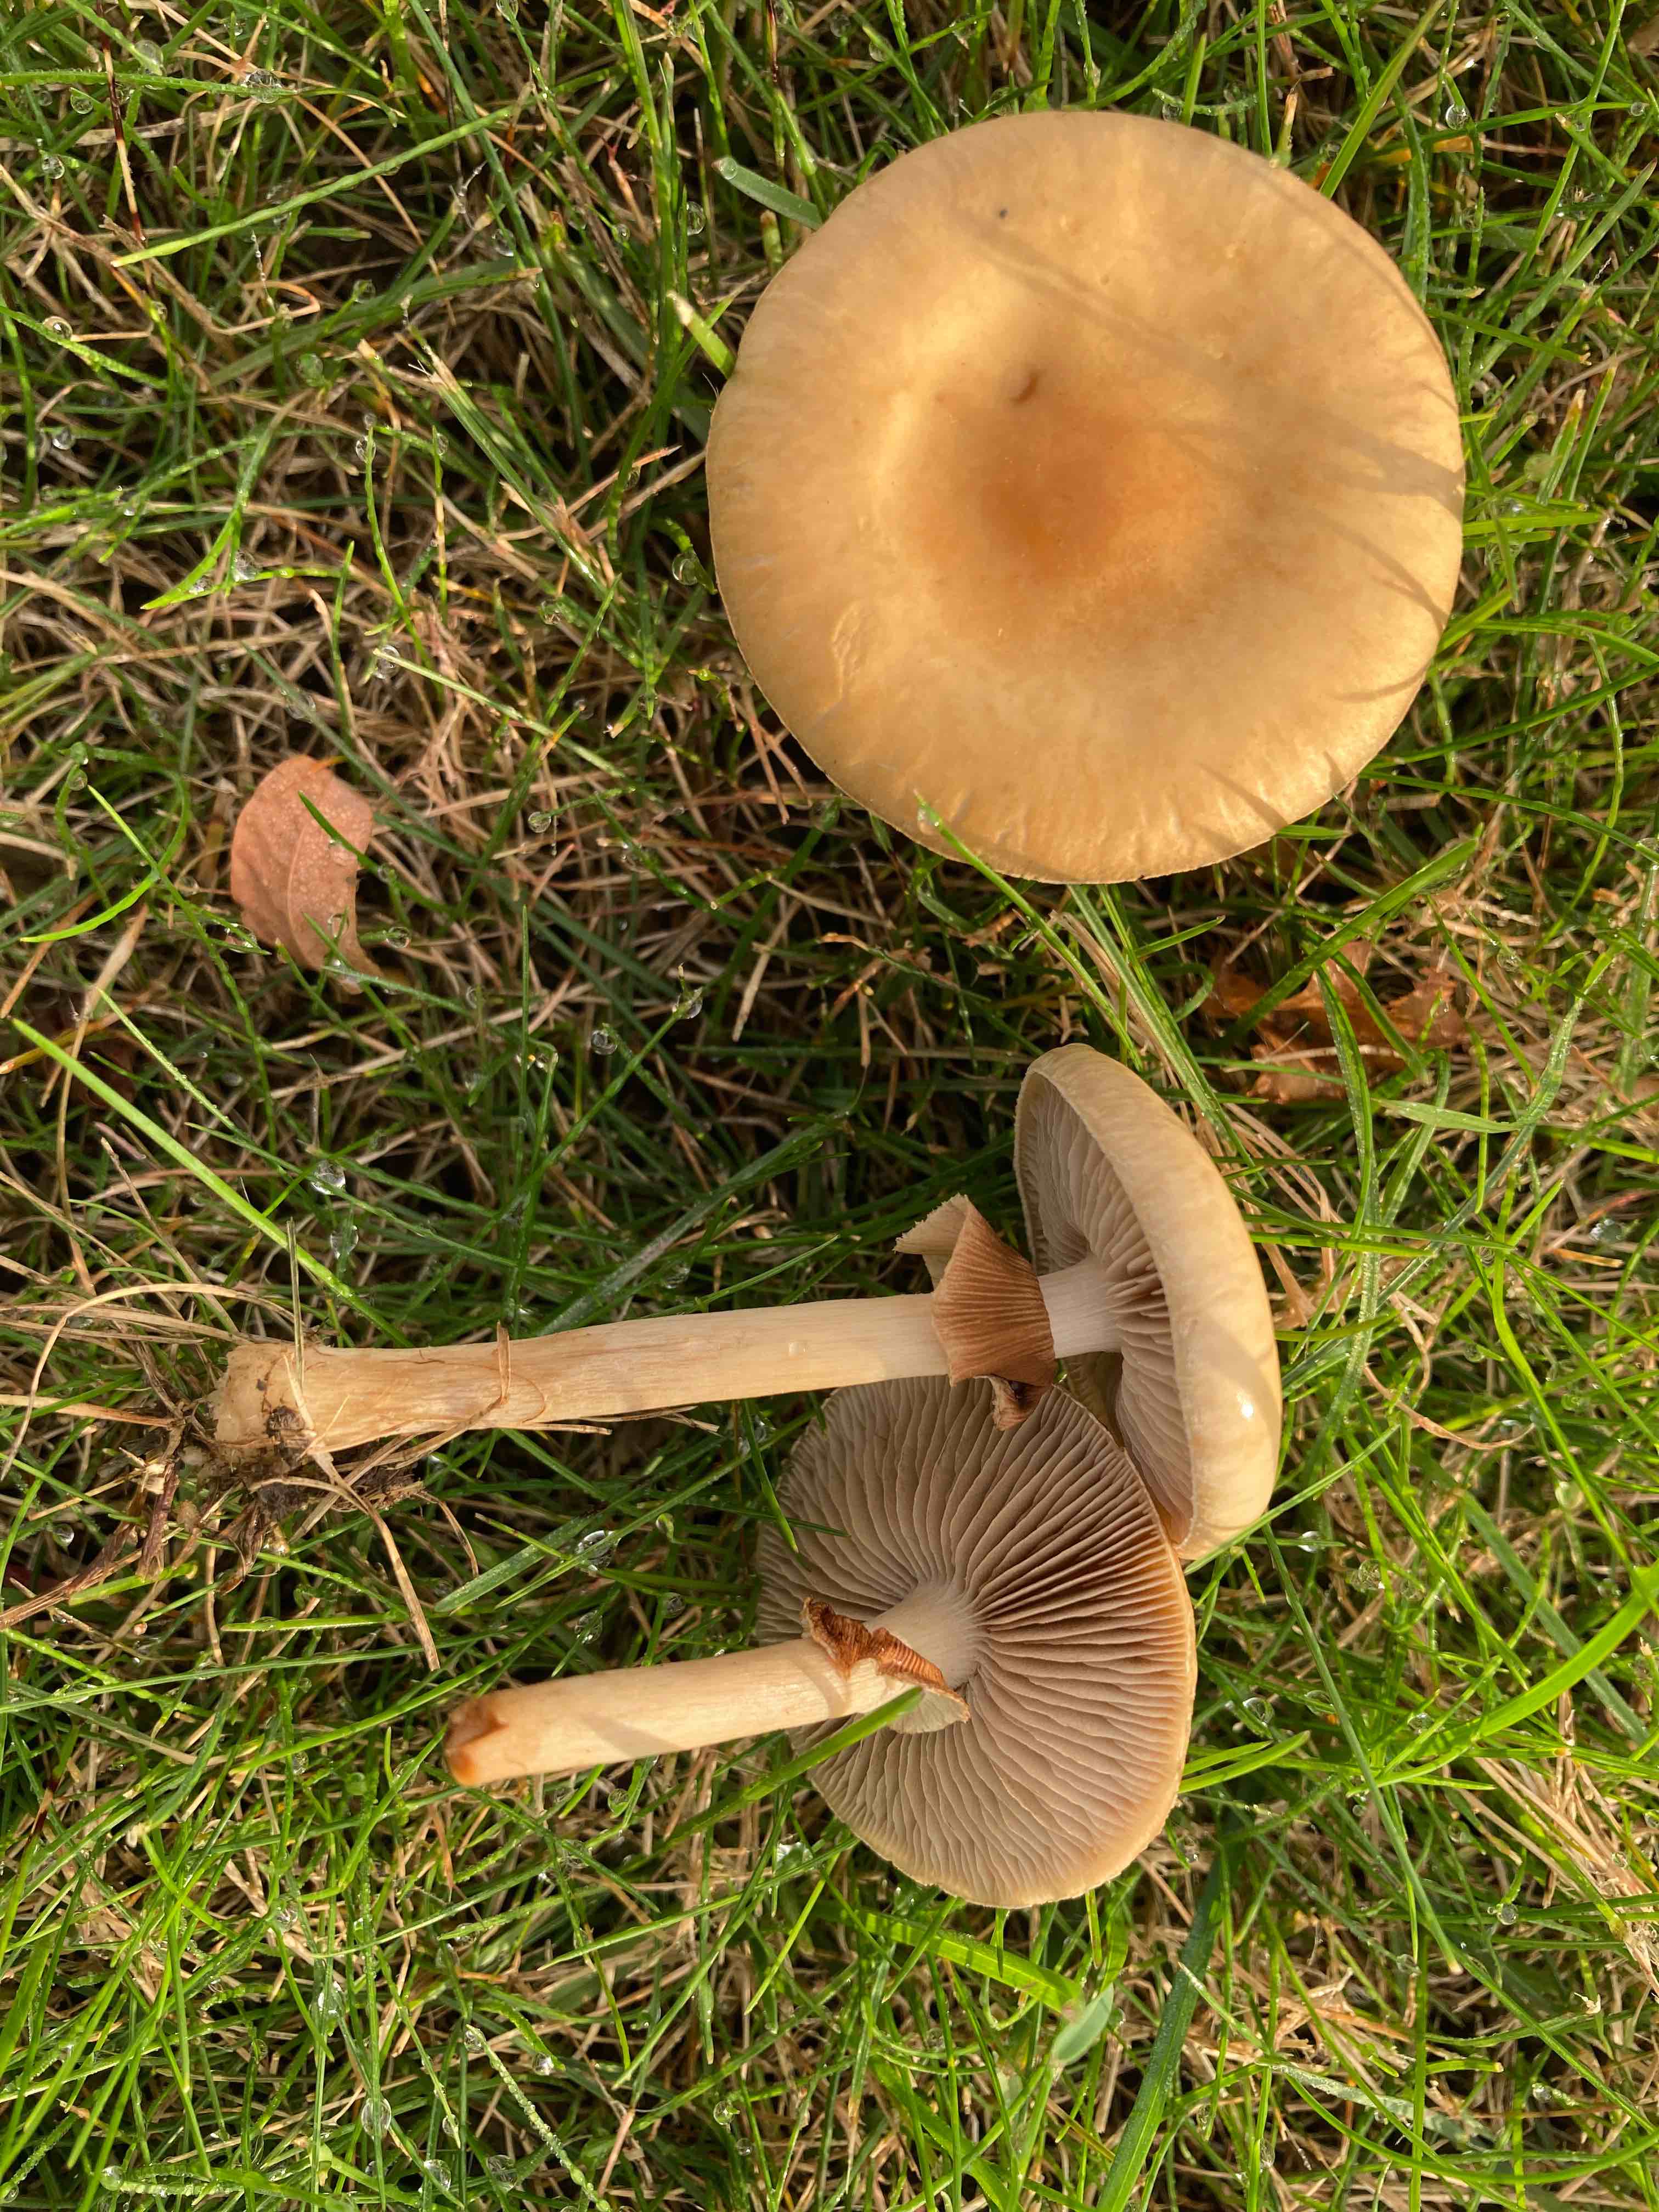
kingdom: Fungi
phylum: Basidiomycota
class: Agaricomycetes
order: Agaricales
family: Strophariaceae
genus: Agrocybe
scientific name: Agrocybe praecox
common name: tidlig agerhat
